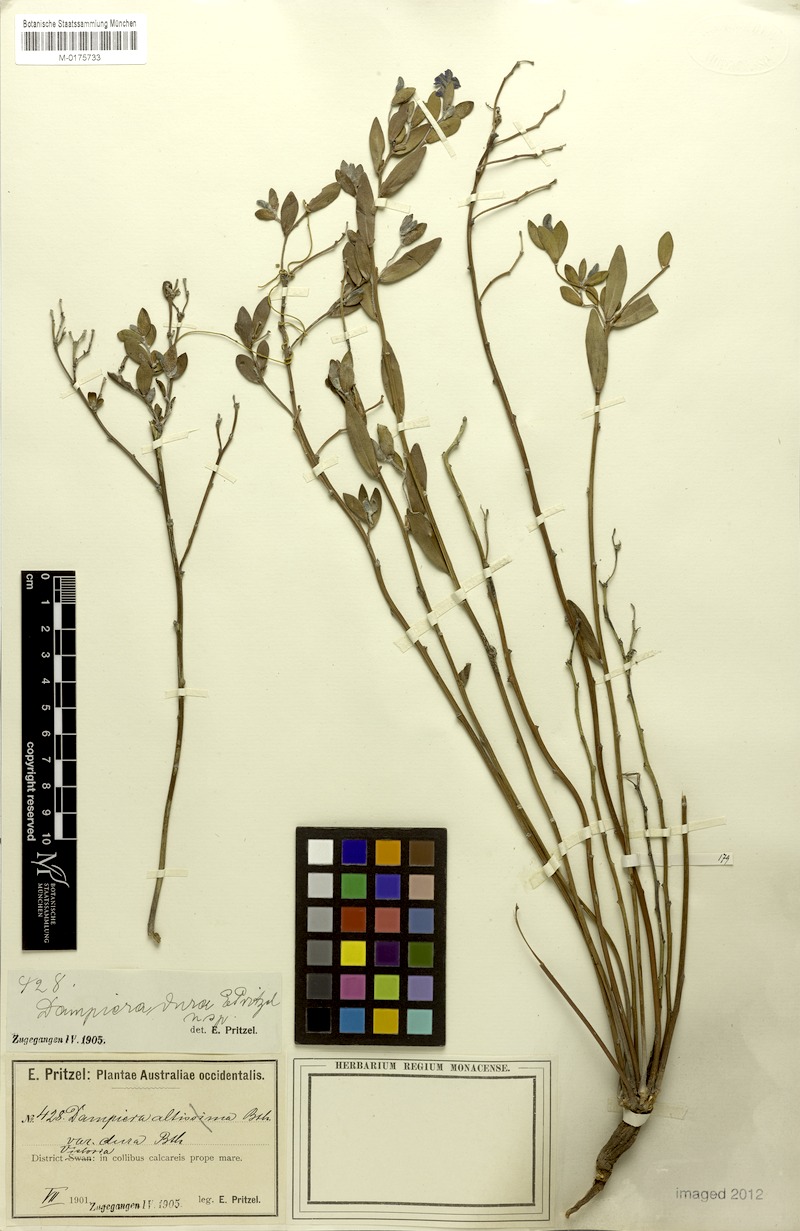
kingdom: Plantae
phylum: Tracheophyta
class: Magnoliopsida
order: Asterales
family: Goodeniaceae
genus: Dampiera
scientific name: Dampiera haematotricha
